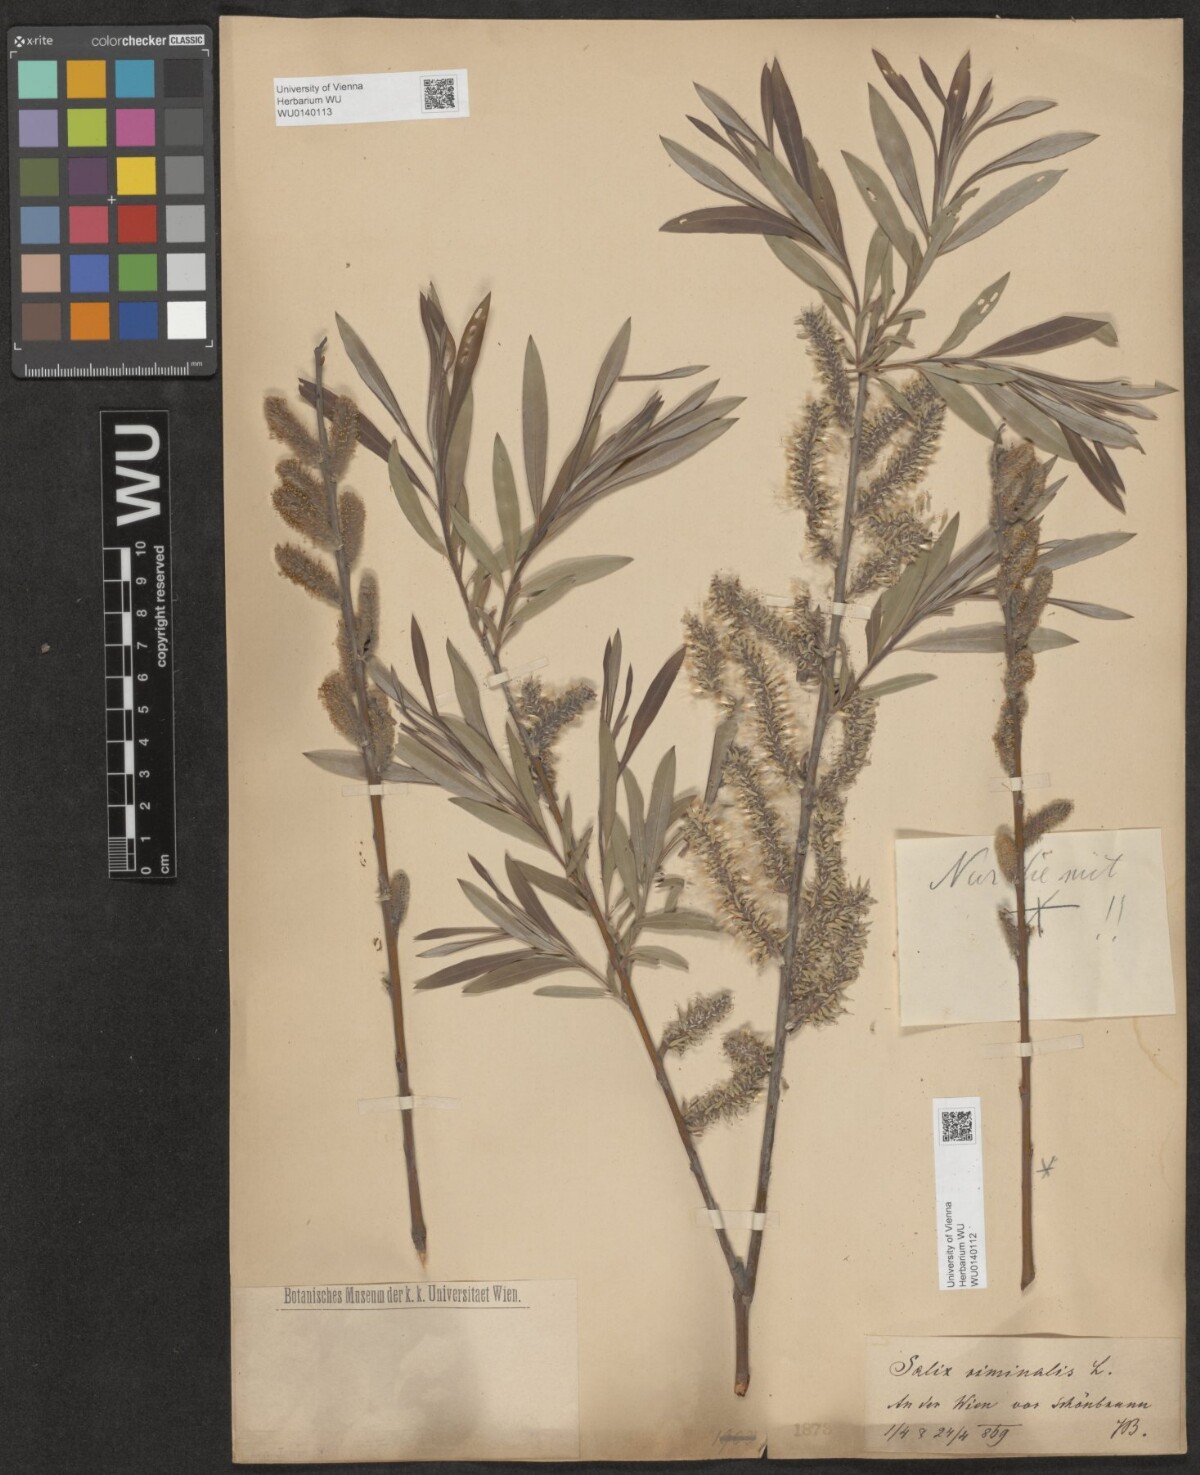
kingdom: Plantae
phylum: Tracheophyta
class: Magnoliopsida
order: Malpighiales
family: Salicaceae
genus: Salix
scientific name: Salix viminalis
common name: Osier
